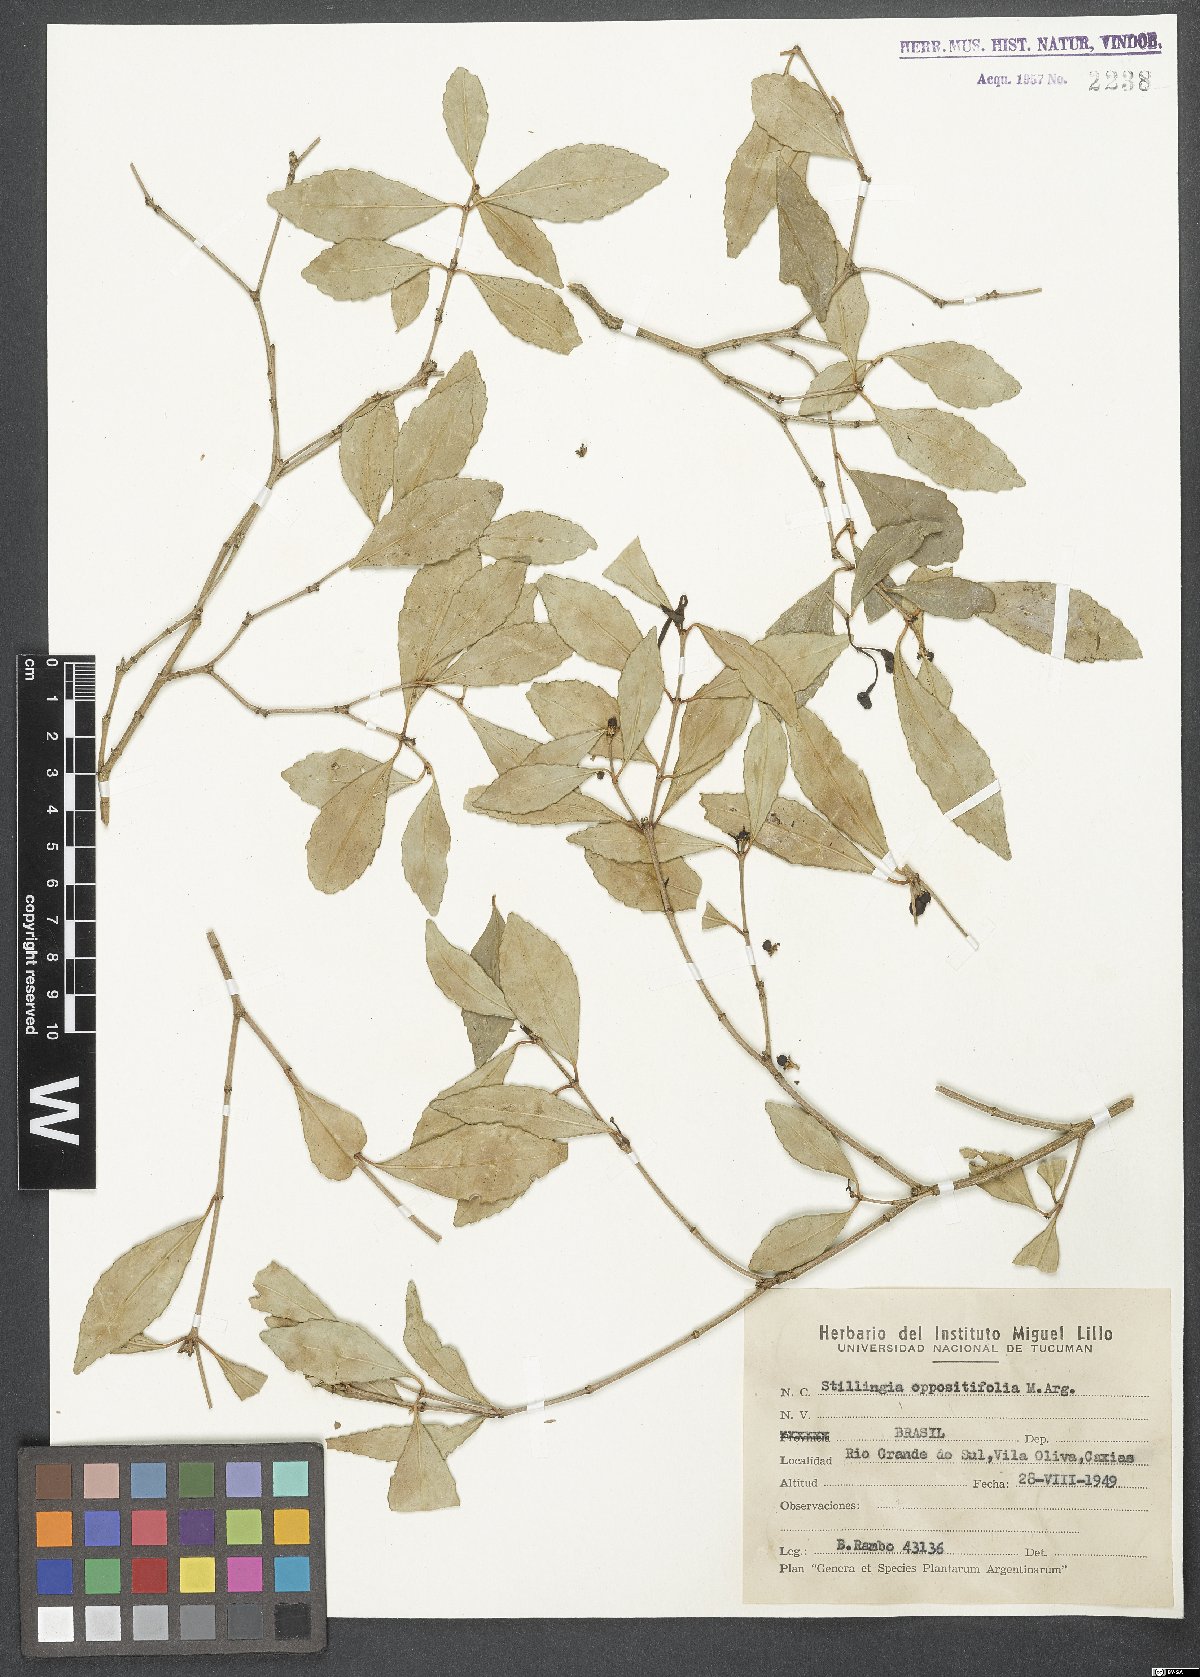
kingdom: Plantae
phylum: Tracheophyta
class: Magnoliopsida
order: Malpighiales
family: Euphorbiaceae
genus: Stillingia
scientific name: Stillingia oppositifolia
